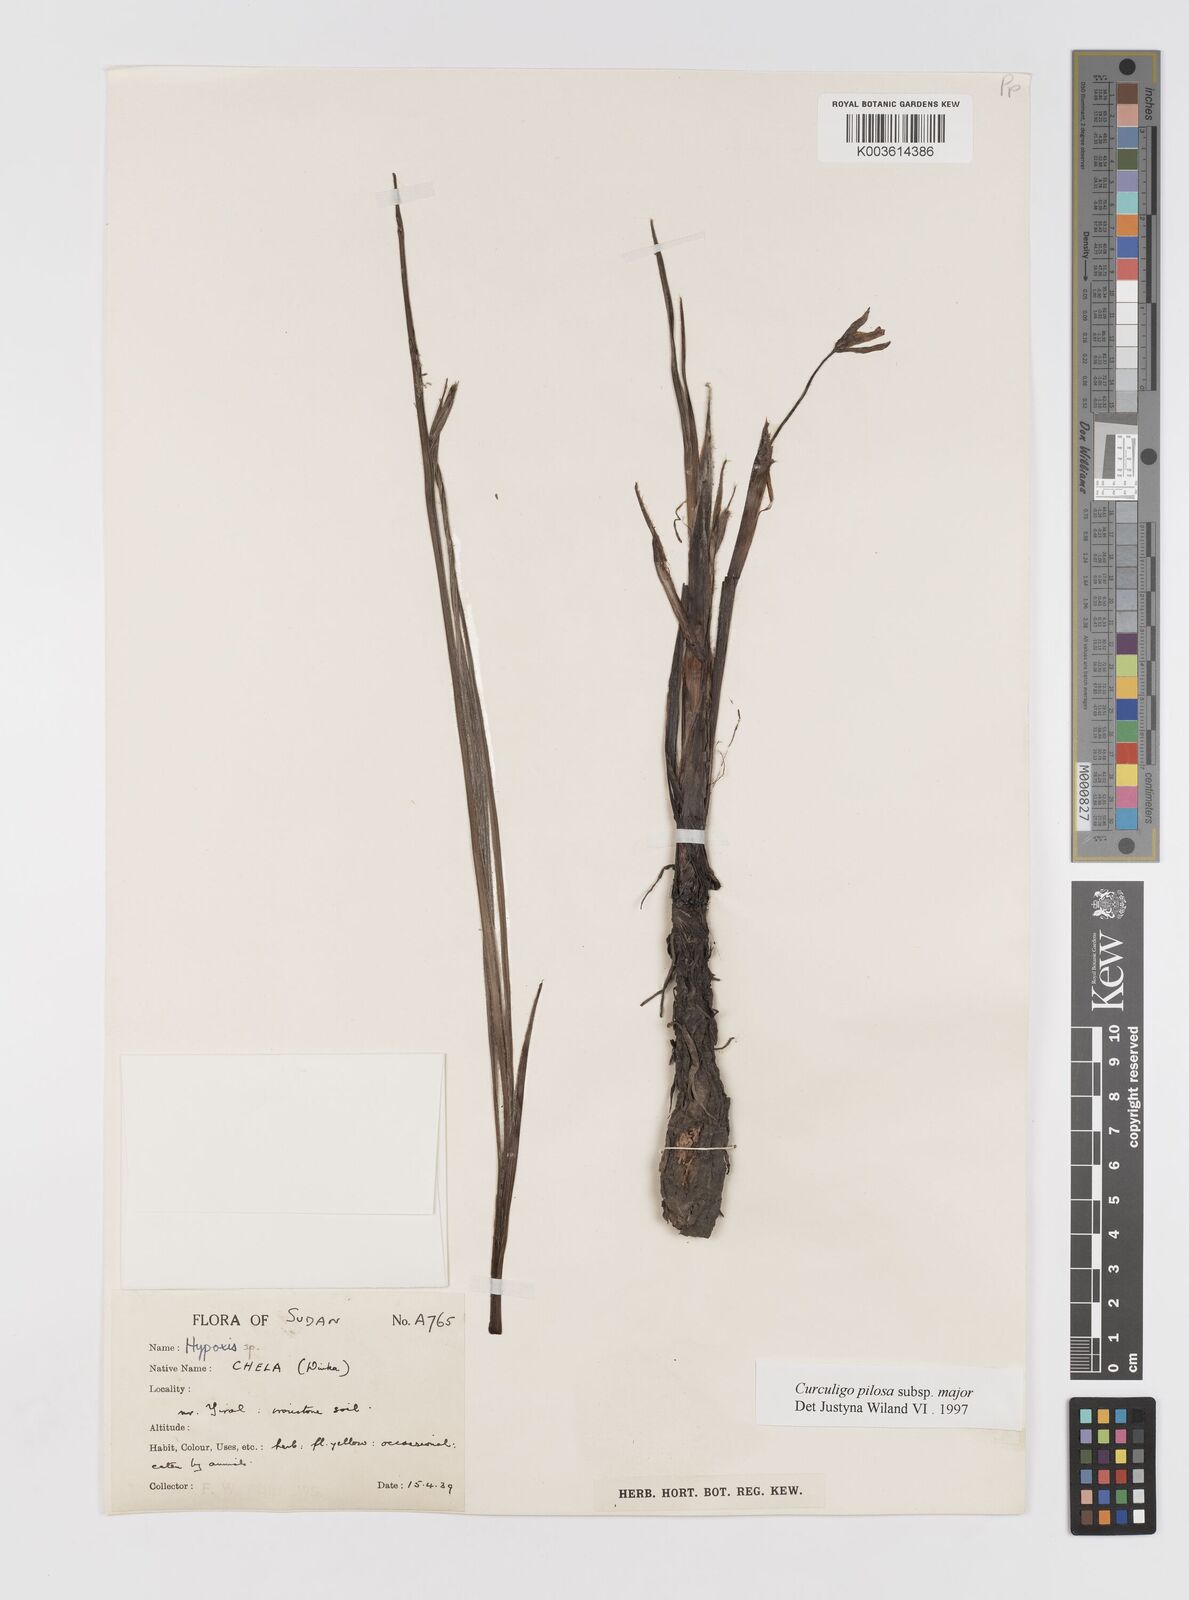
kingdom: Plantae
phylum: Tracheophyta
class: Liliopsida
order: Asparagales
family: Hypoxidaceae
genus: Curculigo
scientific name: Curculigo pilosa
